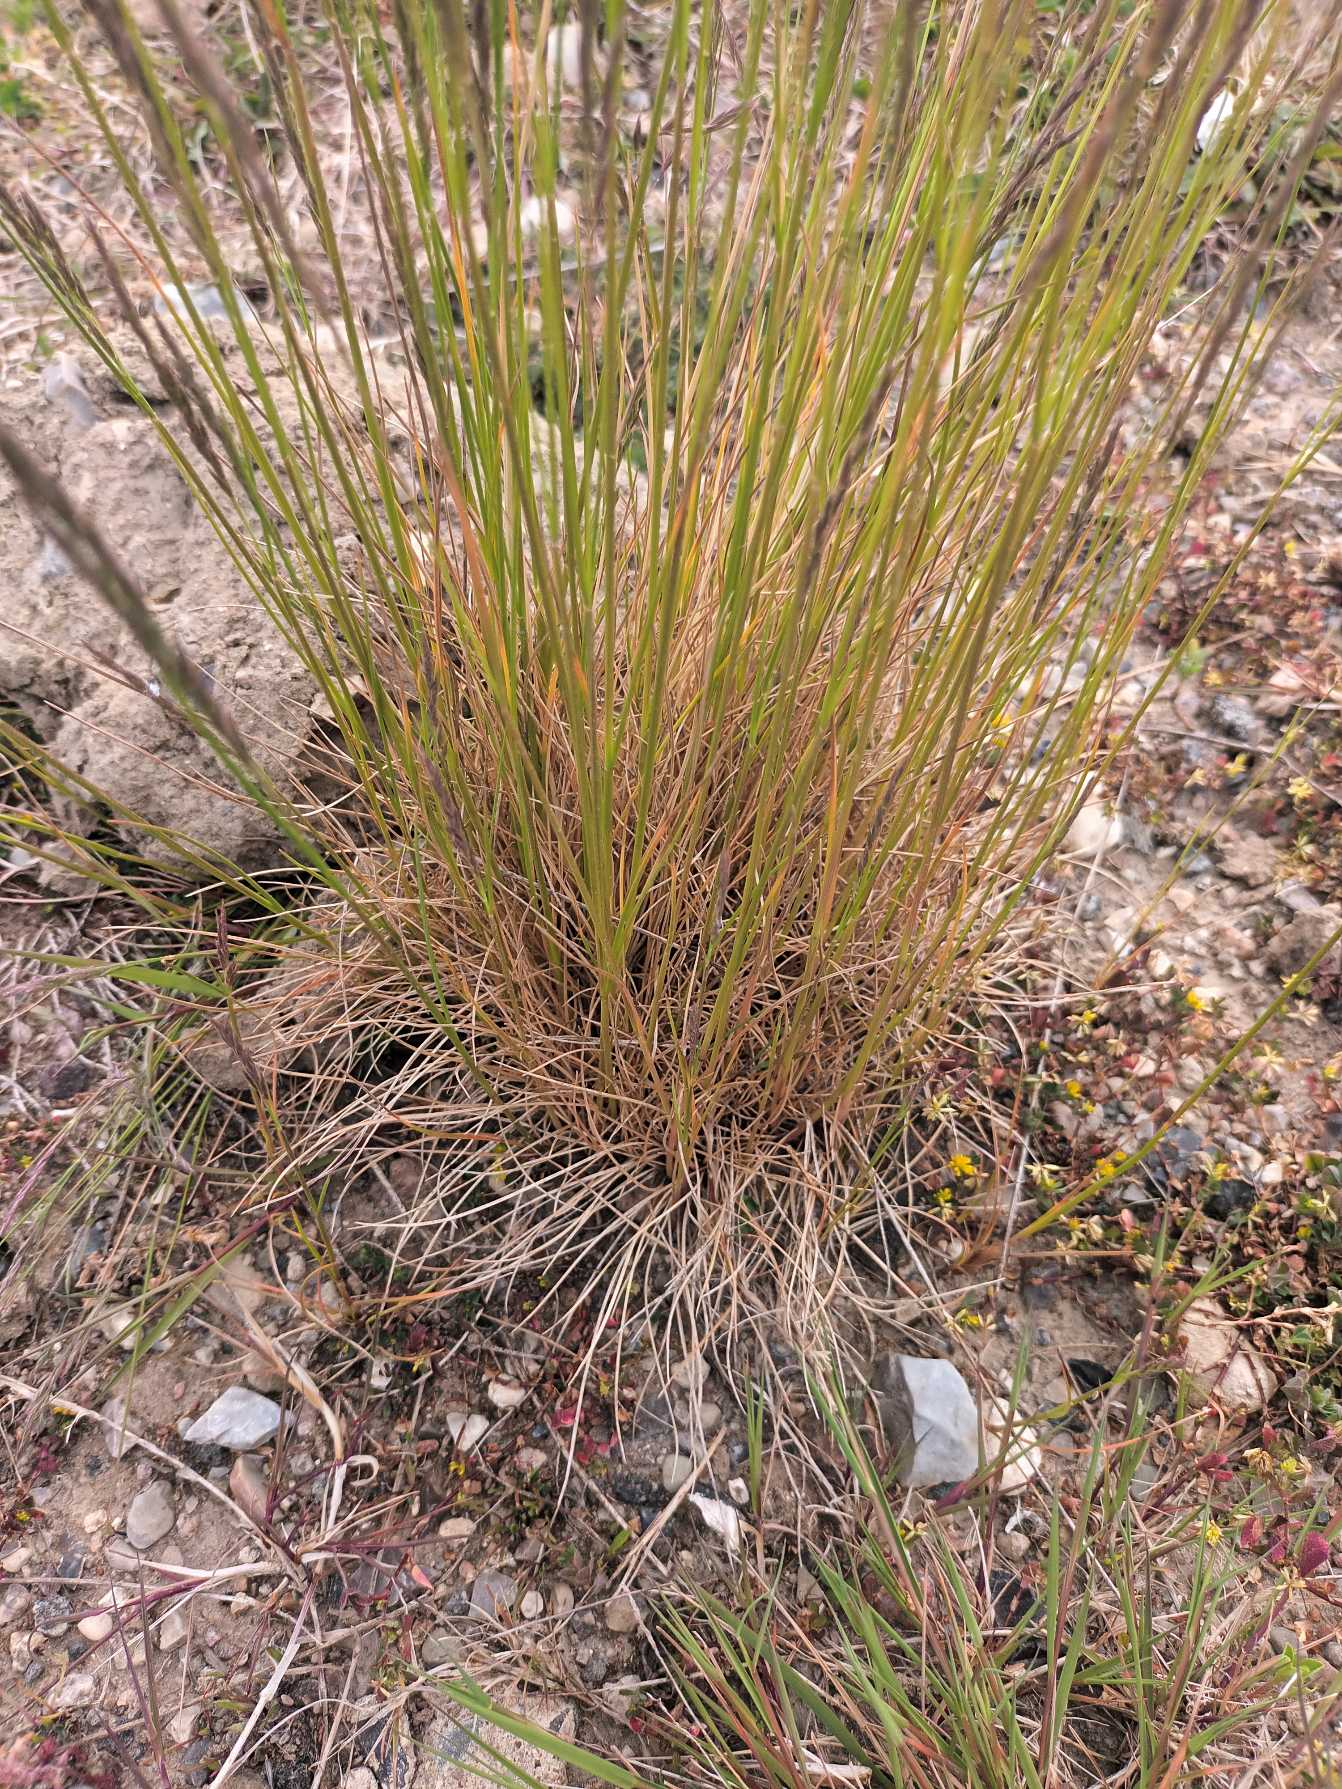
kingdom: Plantae
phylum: Tracheophyta
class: Liliopsida
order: Poales
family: Poaceae
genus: Festuca
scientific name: Festuca trachyphylla
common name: Bakke-svingel
